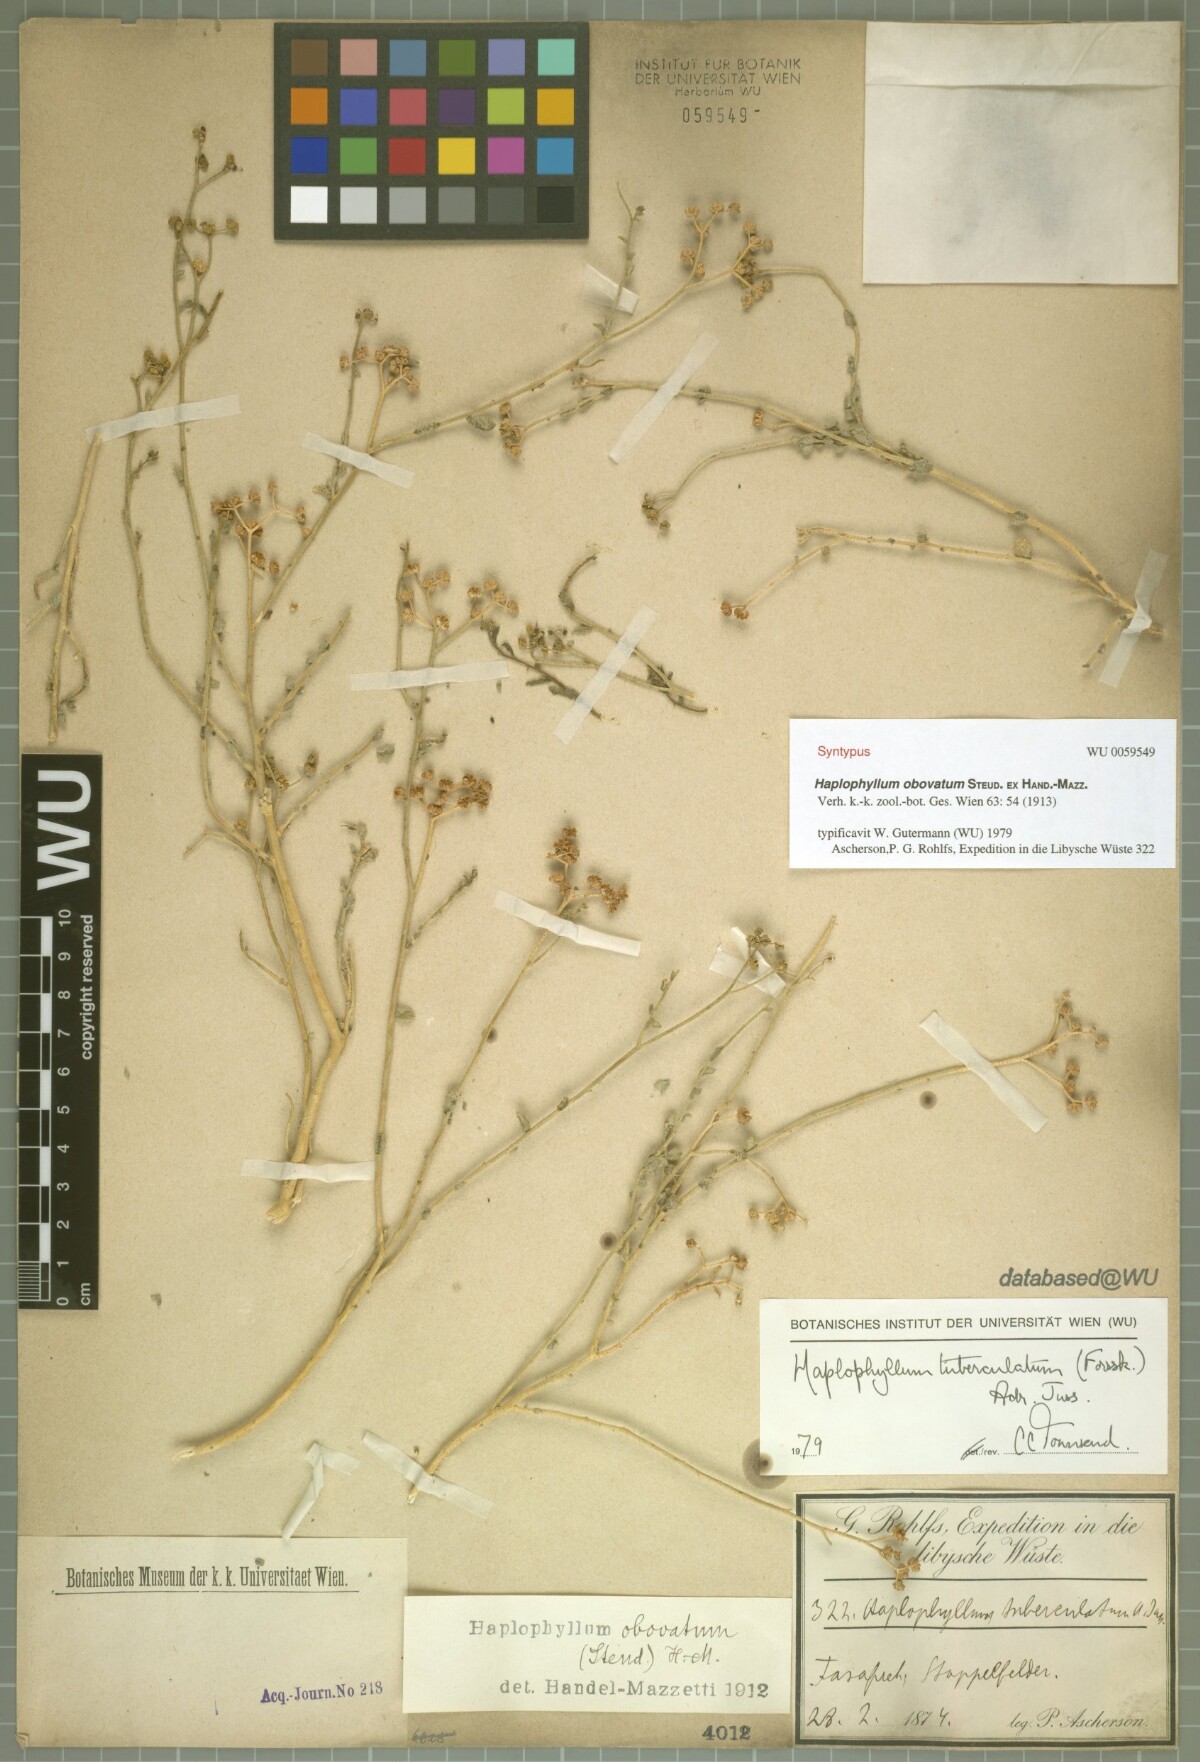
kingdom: Plantae
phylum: Tracheophyta
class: Magnoliopsida
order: Sapindales
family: Rutaceae
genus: Haplophyllum
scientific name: Haplophyllum tuberculatum
